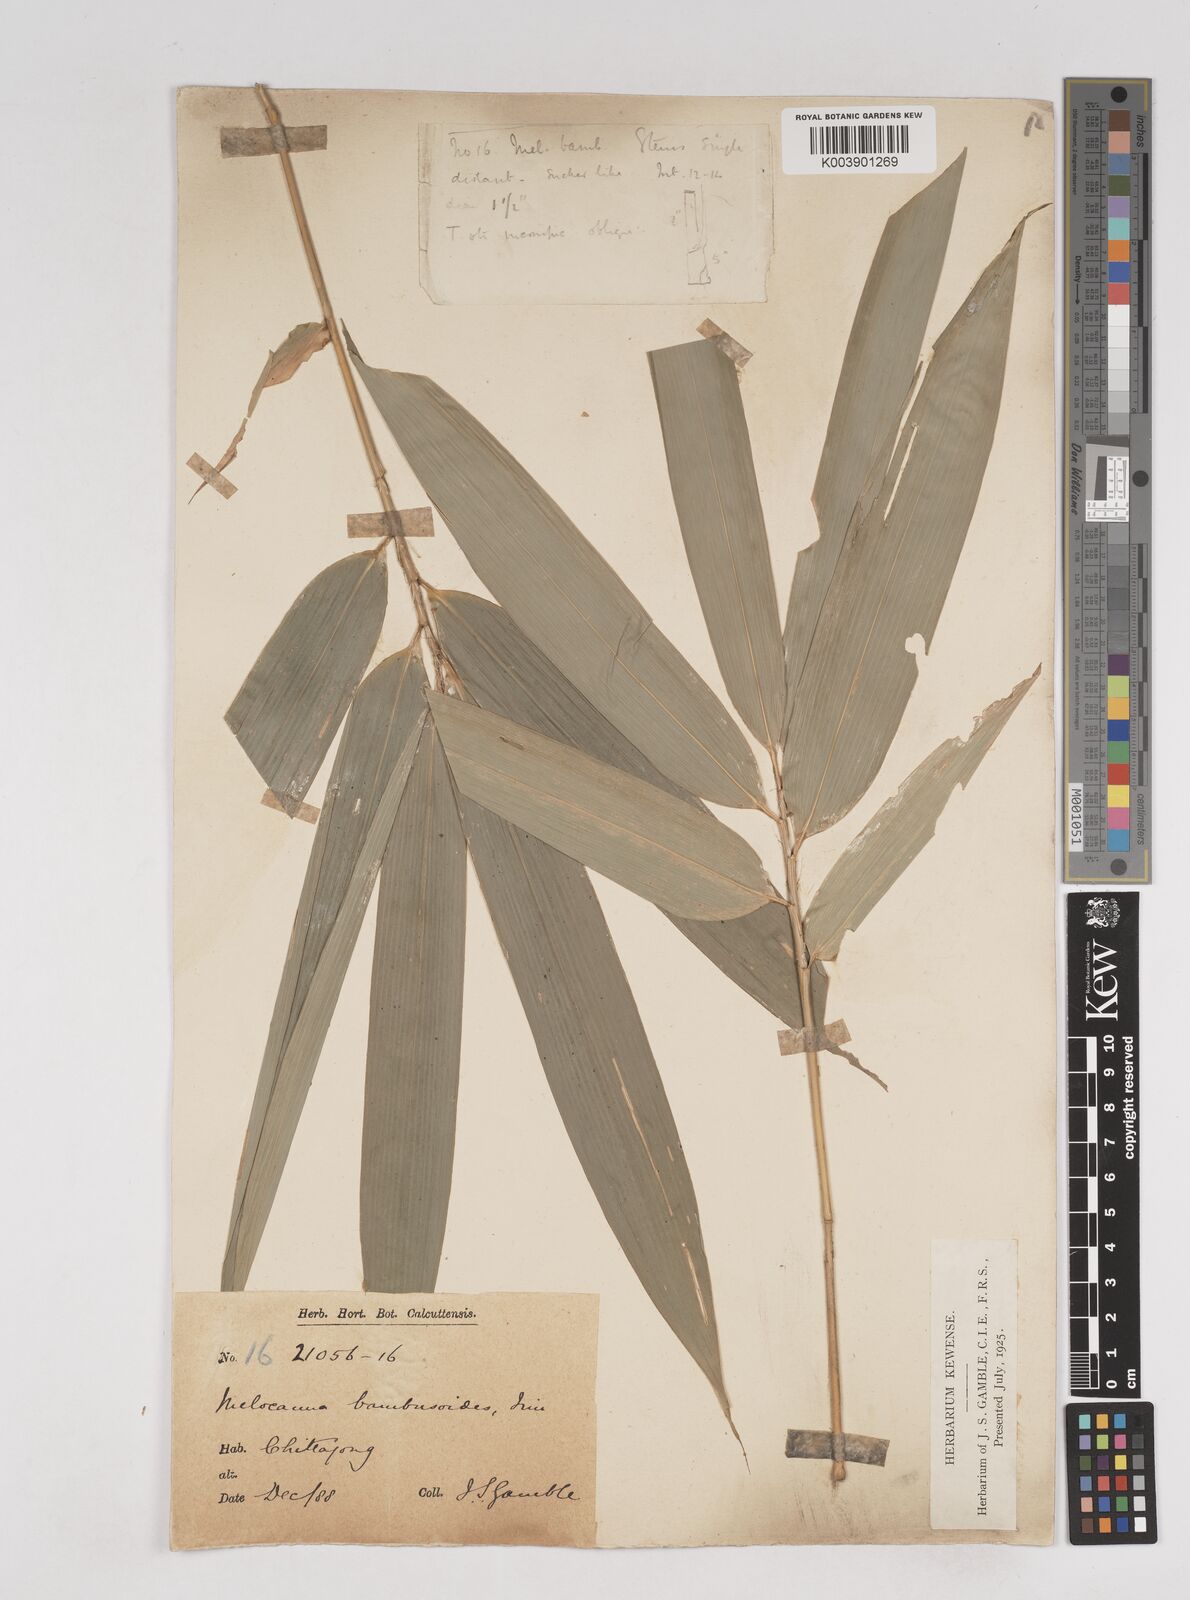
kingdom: Plantae
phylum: Tracheophyta
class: Liliopsida
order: Poales
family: Poaceae
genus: Melocanna
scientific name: Melocanna baccifera
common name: Berry bamboo
